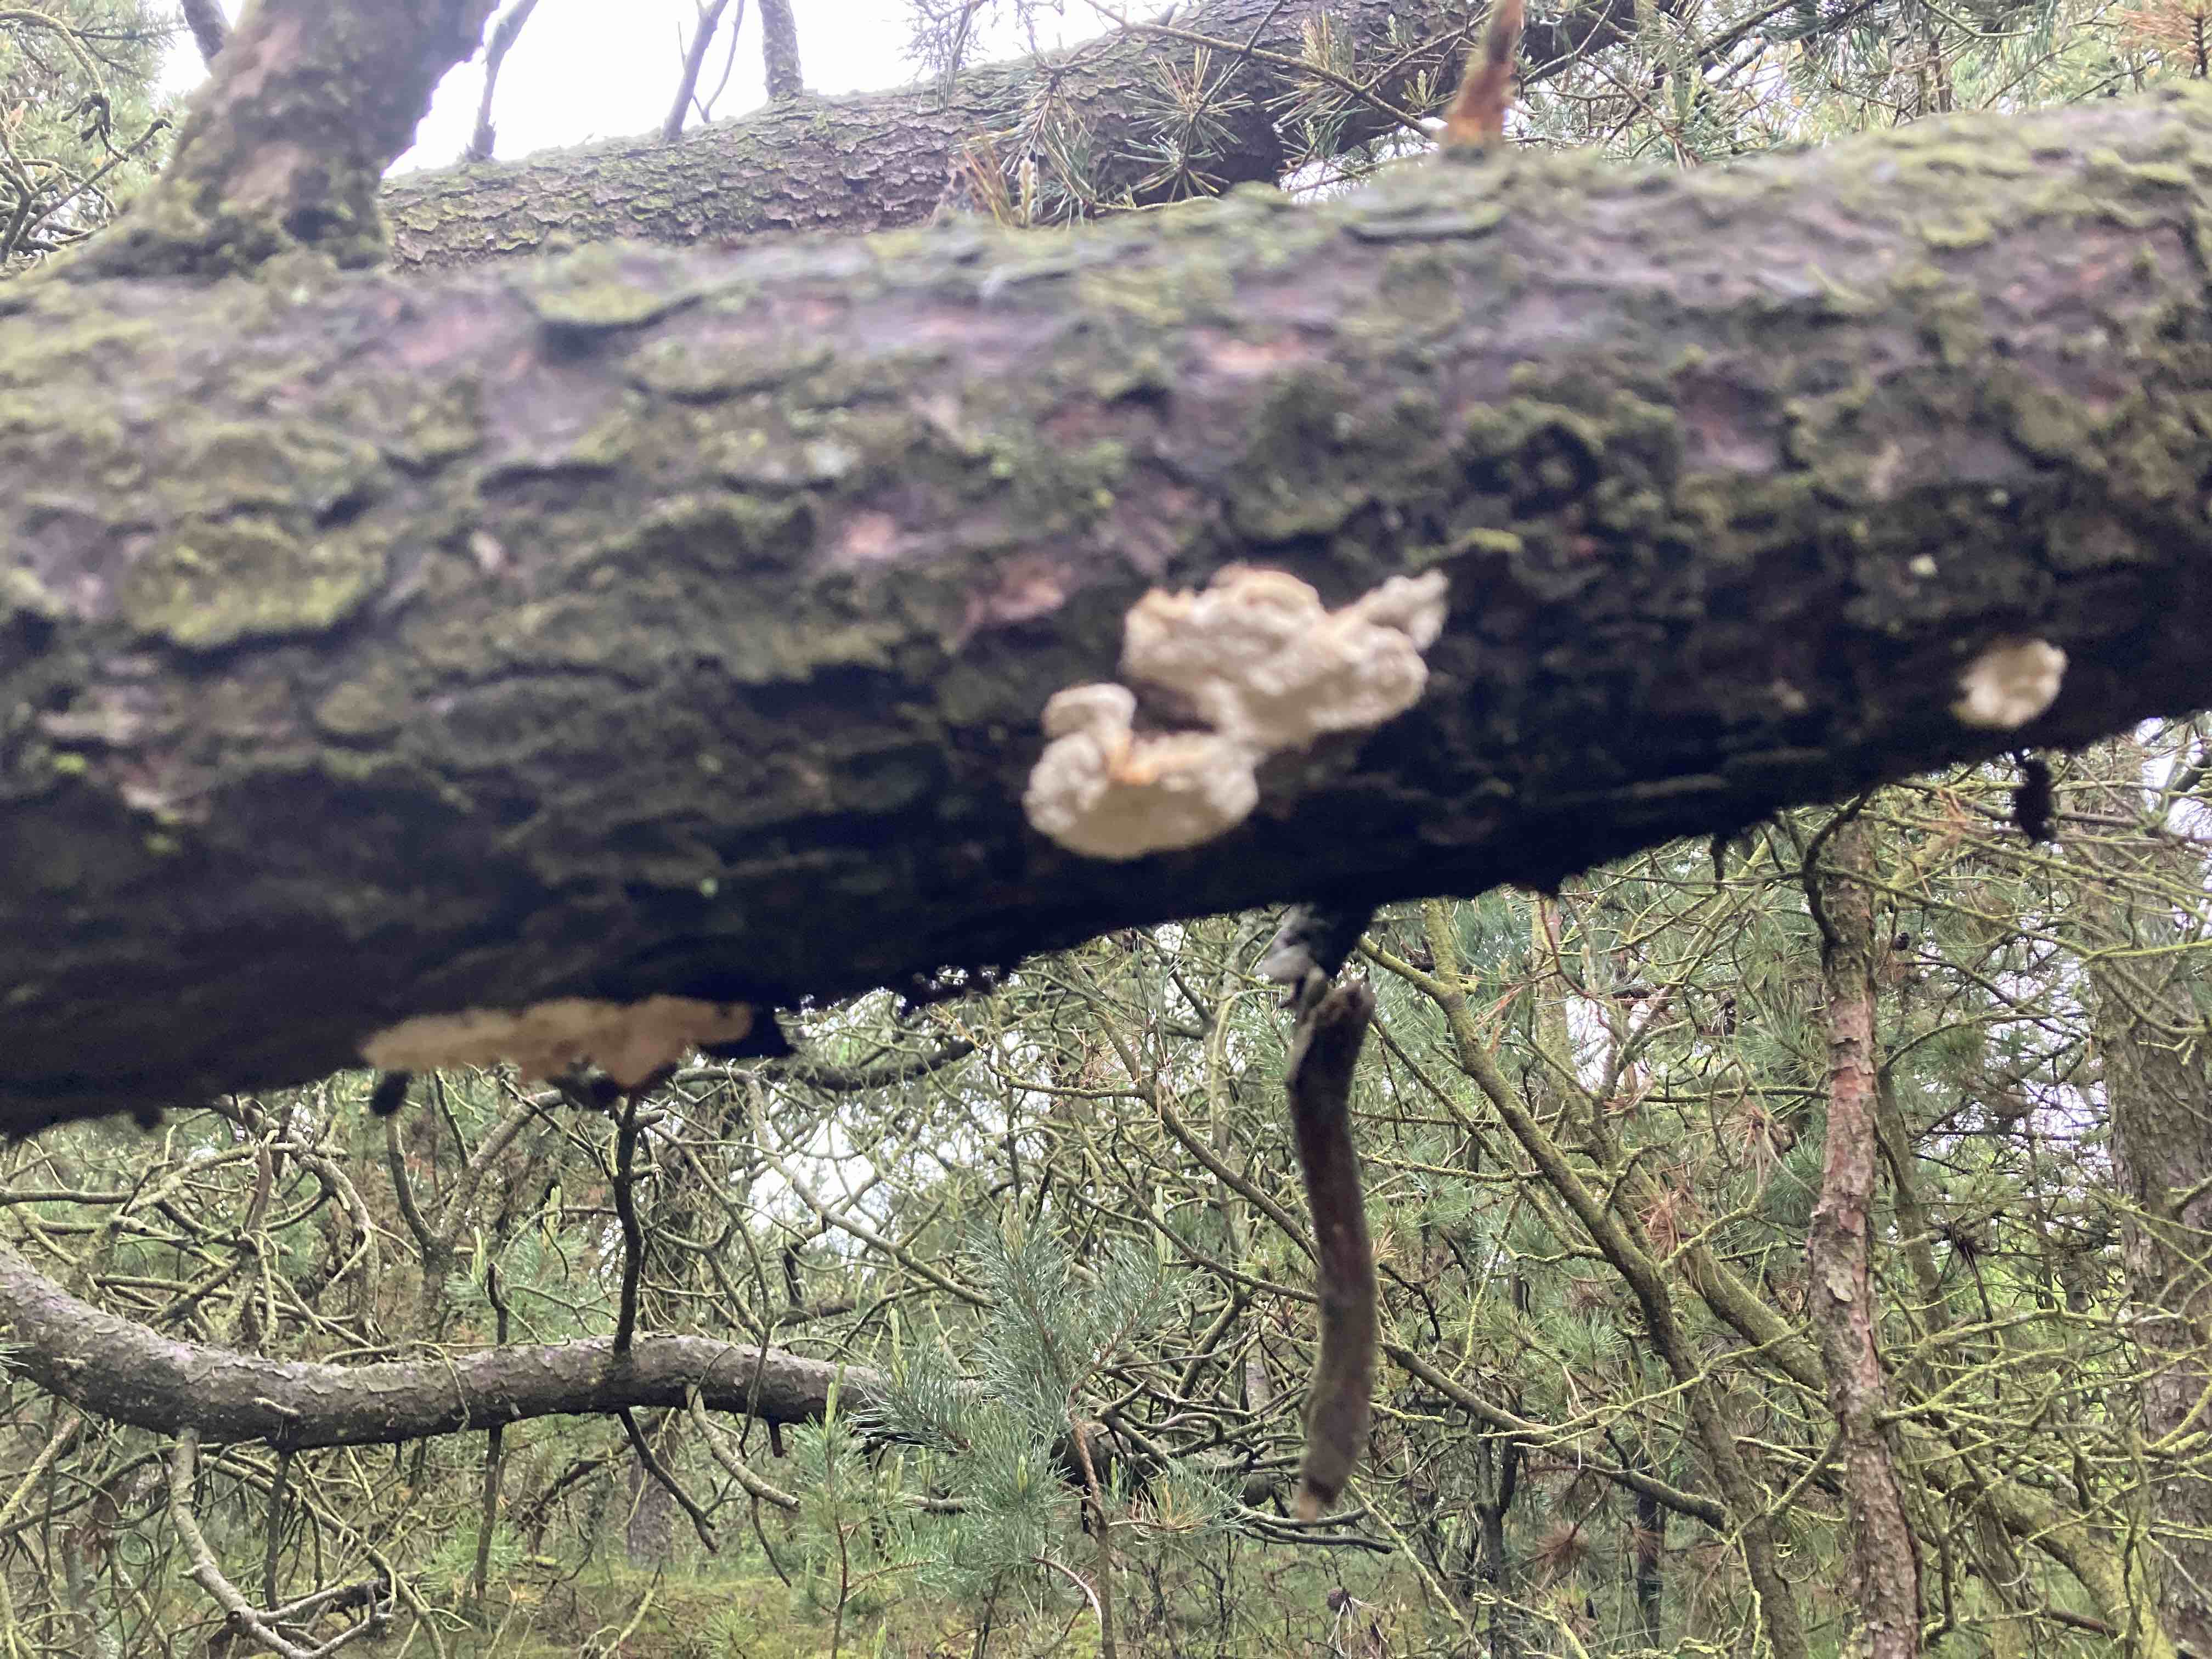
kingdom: Fungi
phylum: Basidiomycota
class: Agaricomycetes
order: Polyporales
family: Fomitopsidaceae
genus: Fomitopsis
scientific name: Fomitopsis
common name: fyrre-skiveporesvamp
